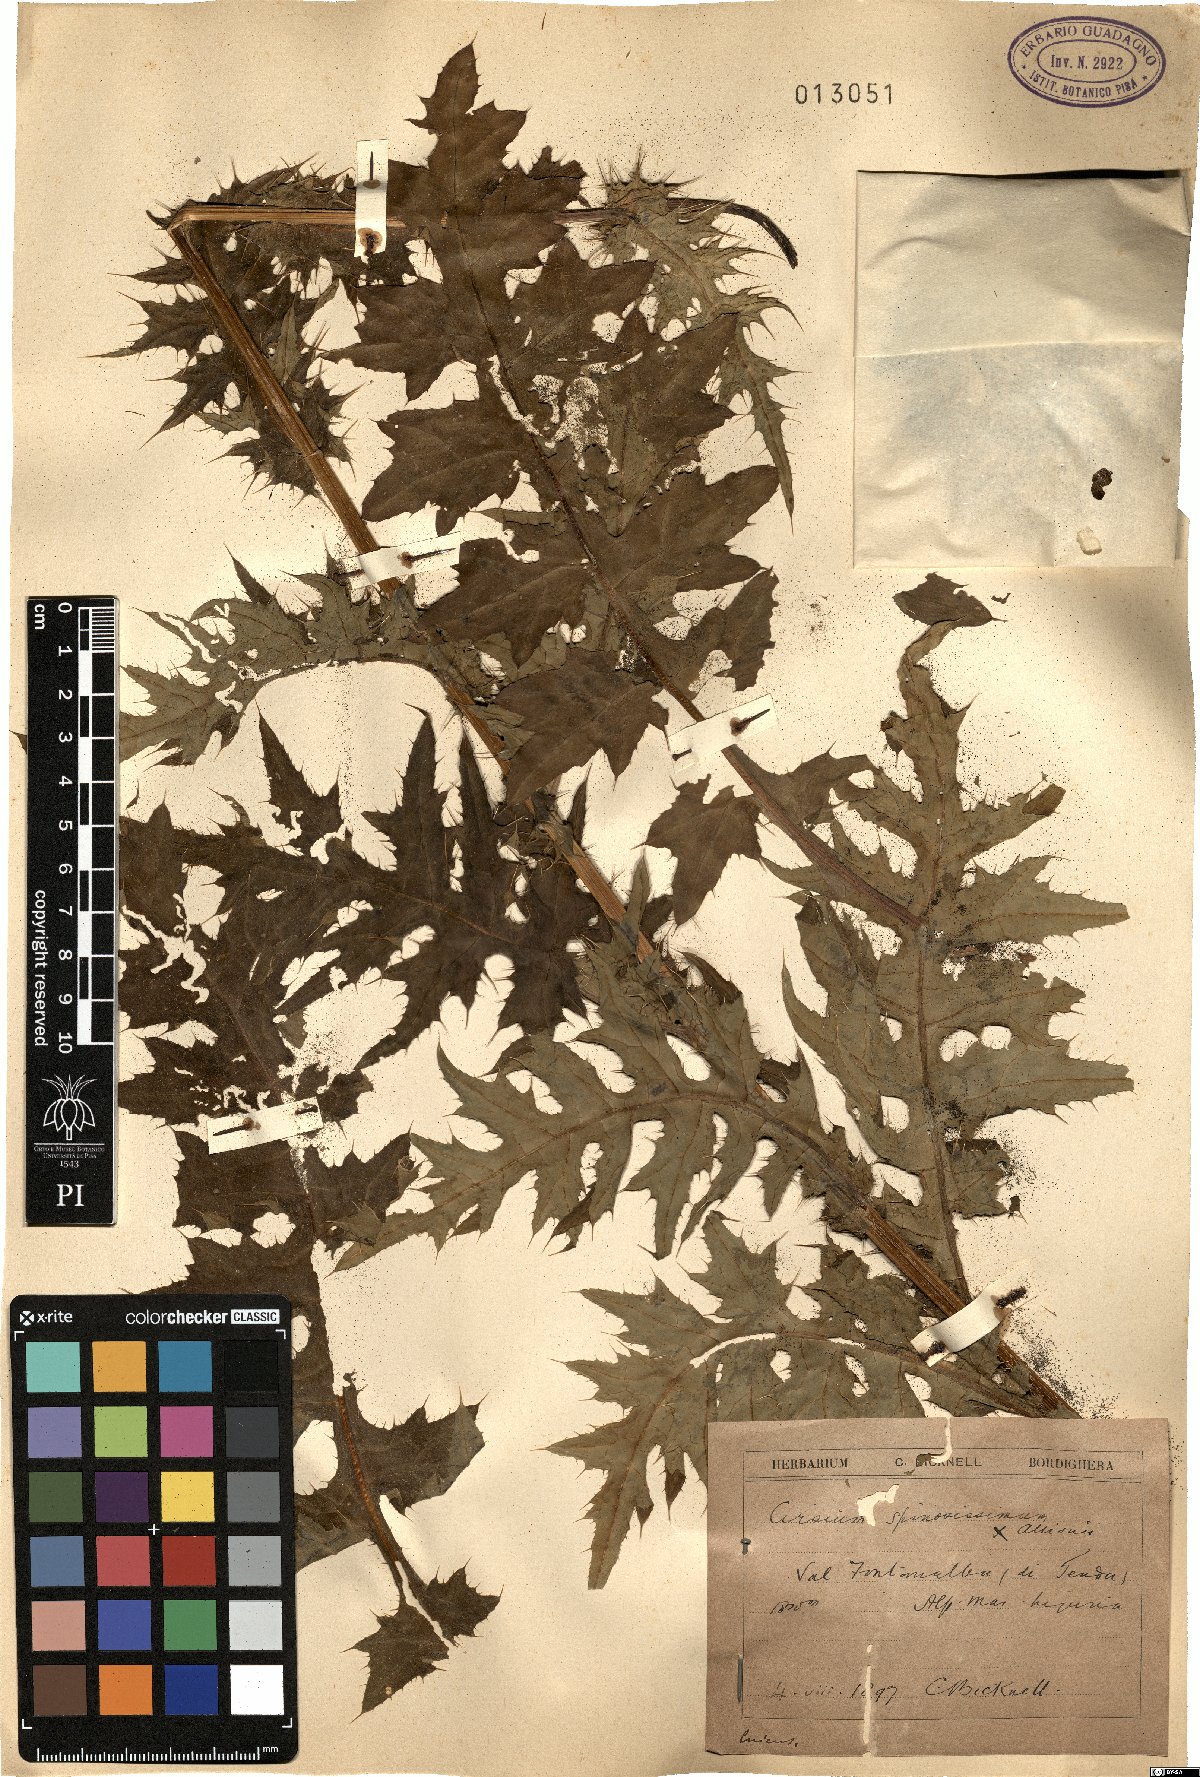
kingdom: Plantae
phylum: Tracheophyta
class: Magnoliopsida
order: Asterales
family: Asteraceae
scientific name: Asteraceae
